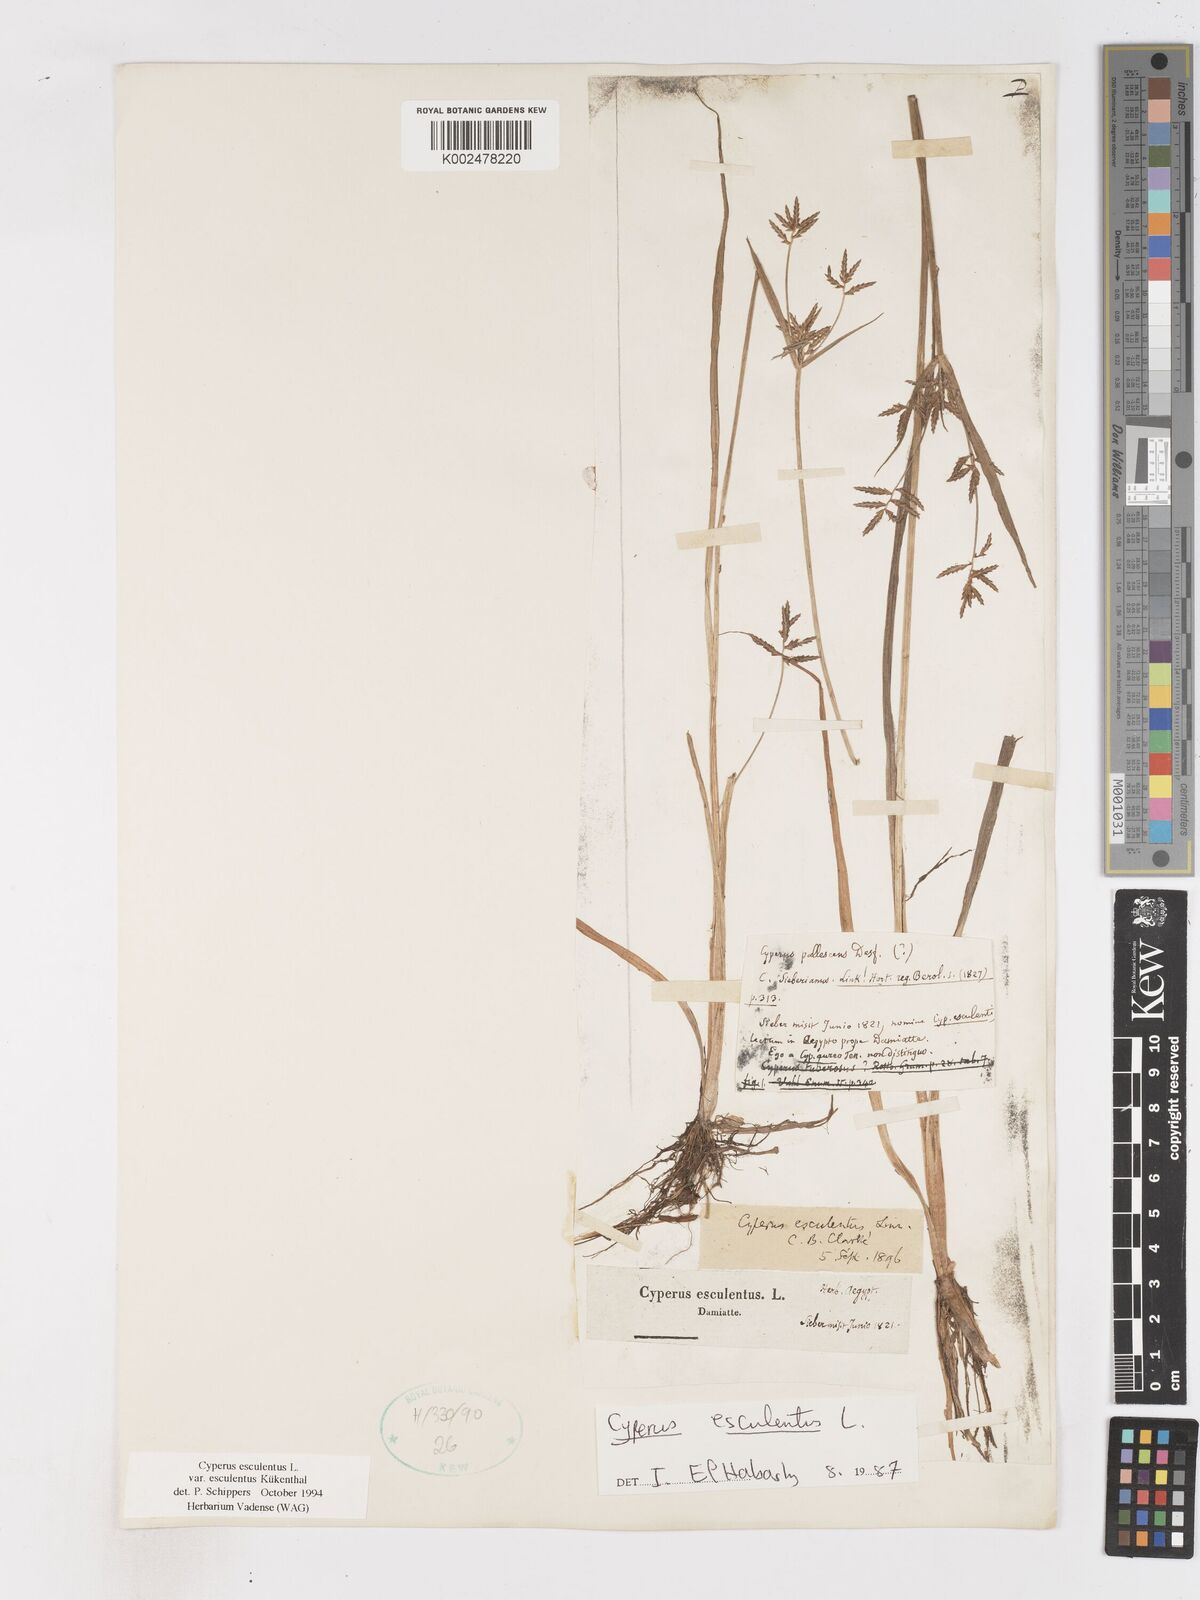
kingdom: Plantae
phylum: Tracheophyta
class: Liliopsida
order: Poales
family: Cyperaceae
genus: Cyperus
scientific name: Cyperus esculentus
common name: Yellow nutsedge
